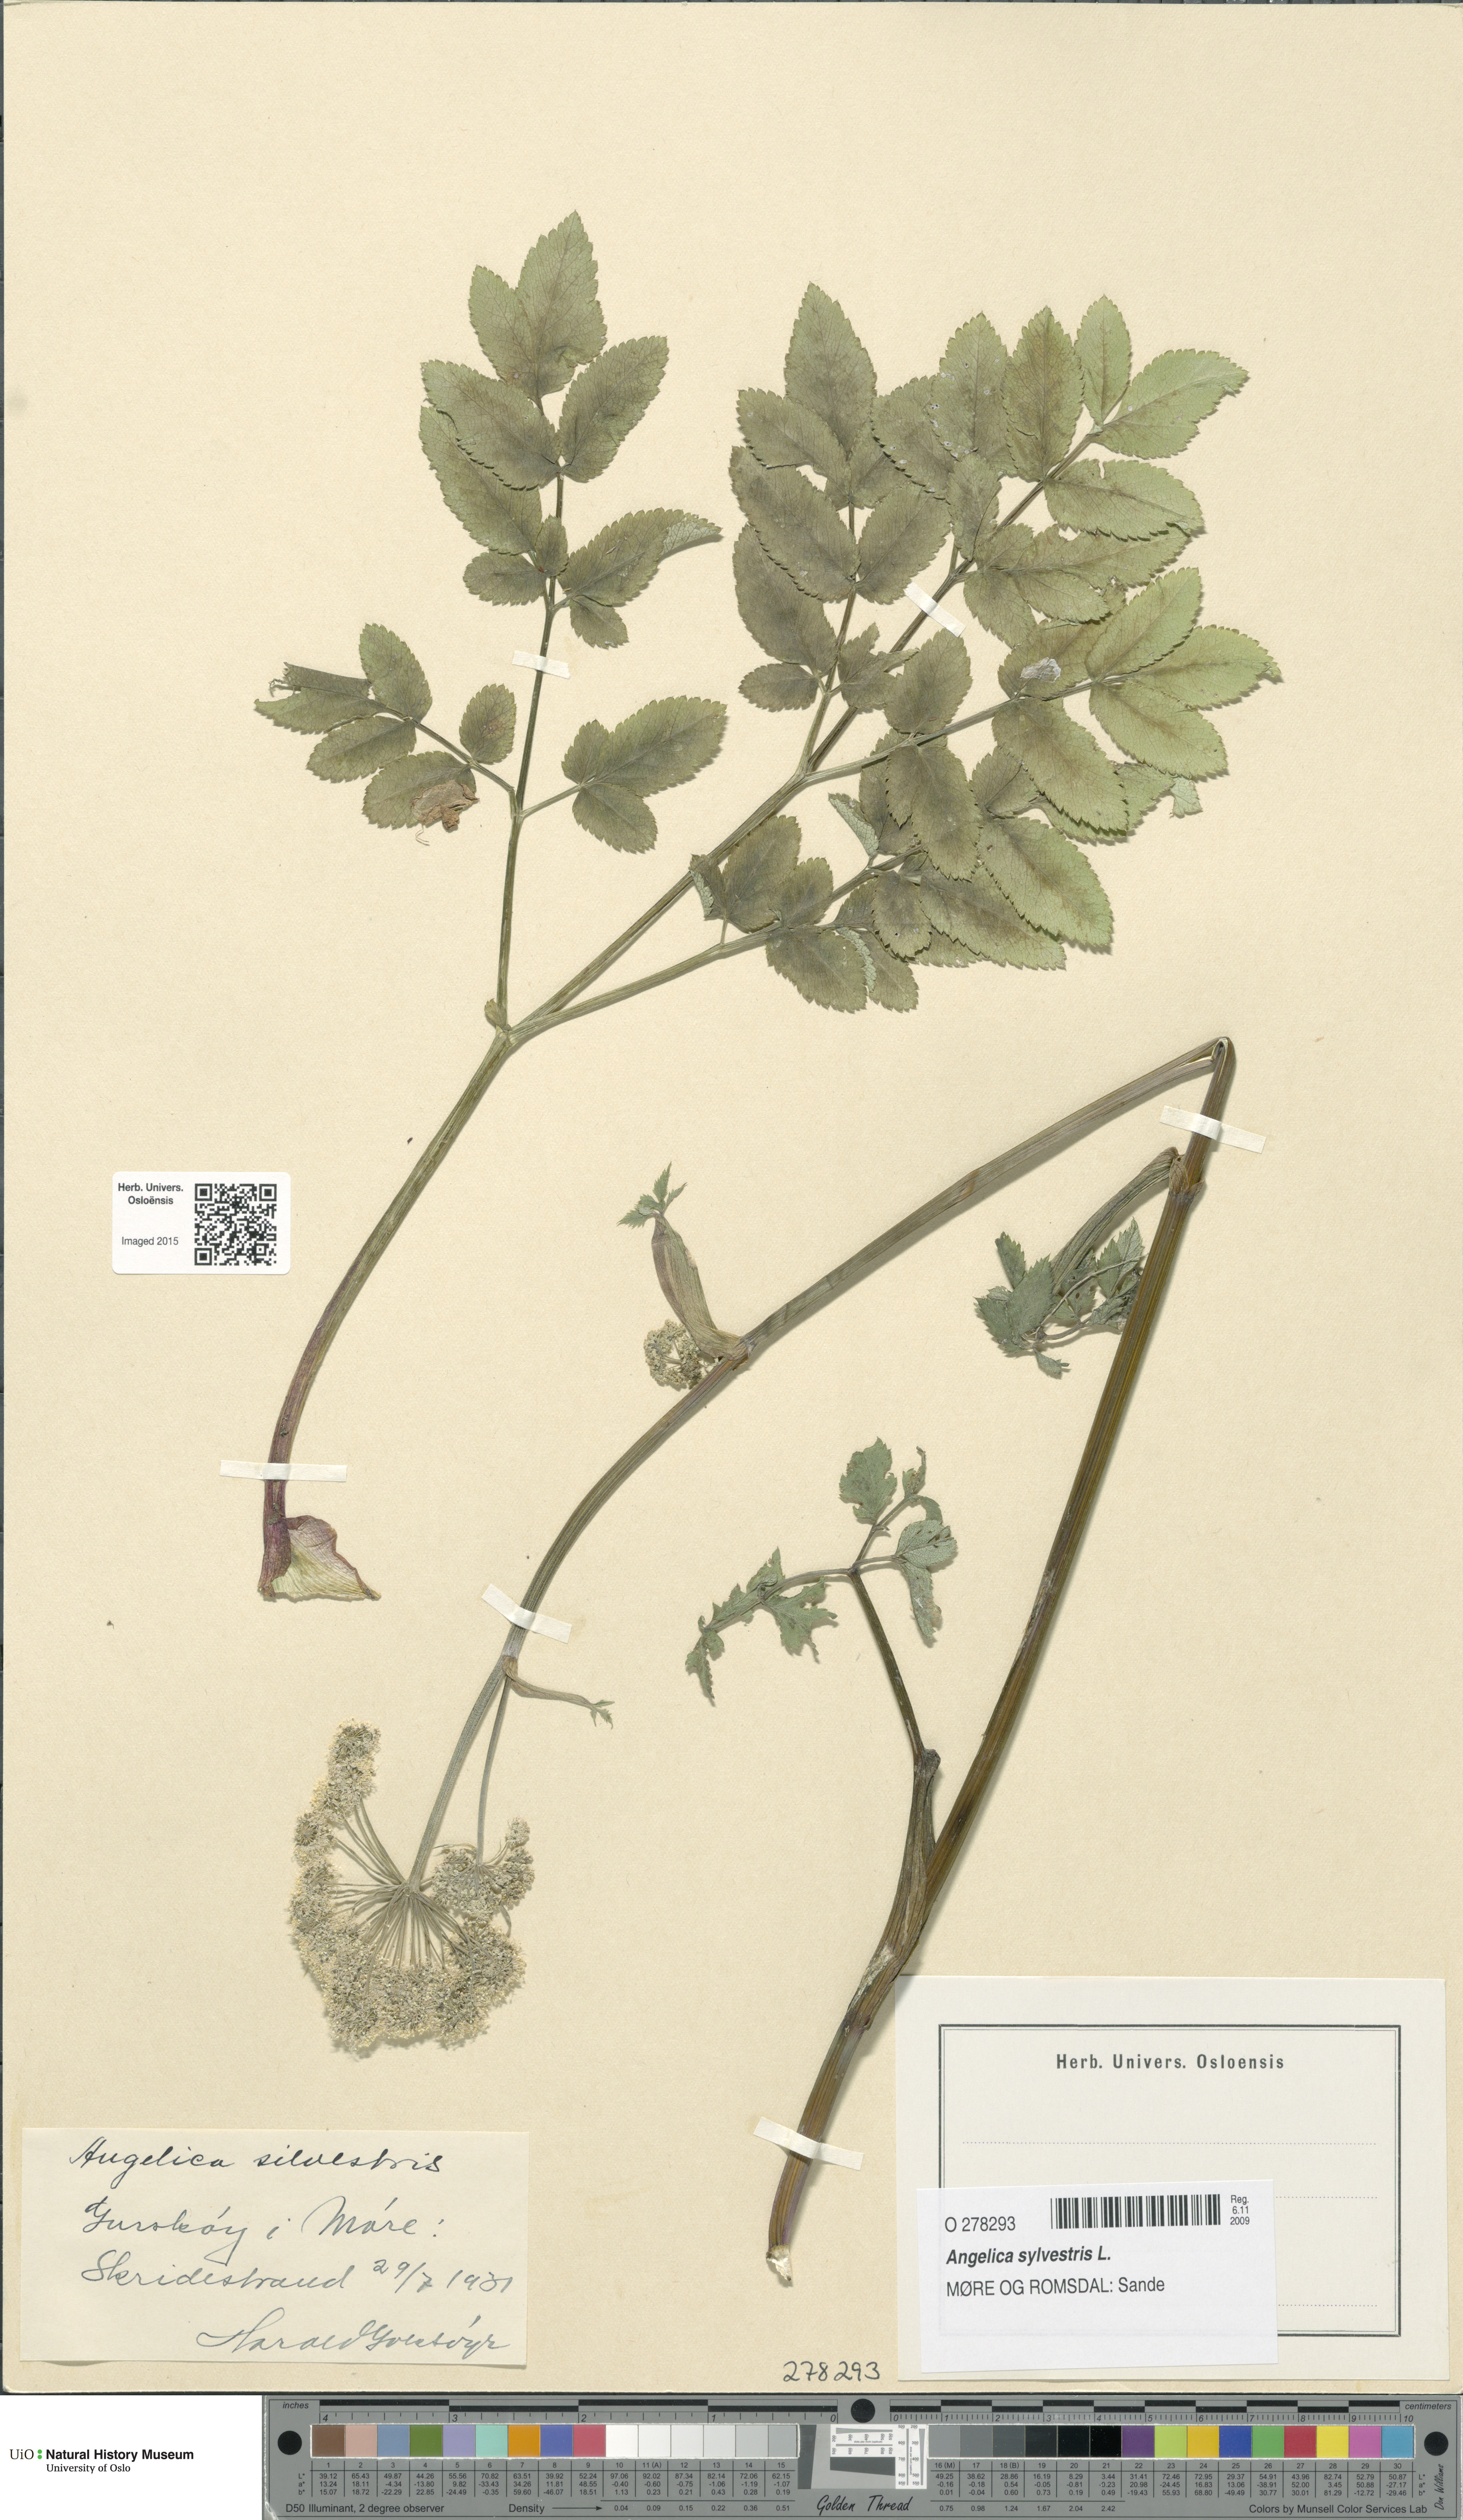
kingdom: Plantae
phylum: Tracheophyta
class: Magnoliopsida
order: Apiales
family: Apiaceae
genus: Angelica
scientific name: Angelica sylvestris
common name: Wild angelica
